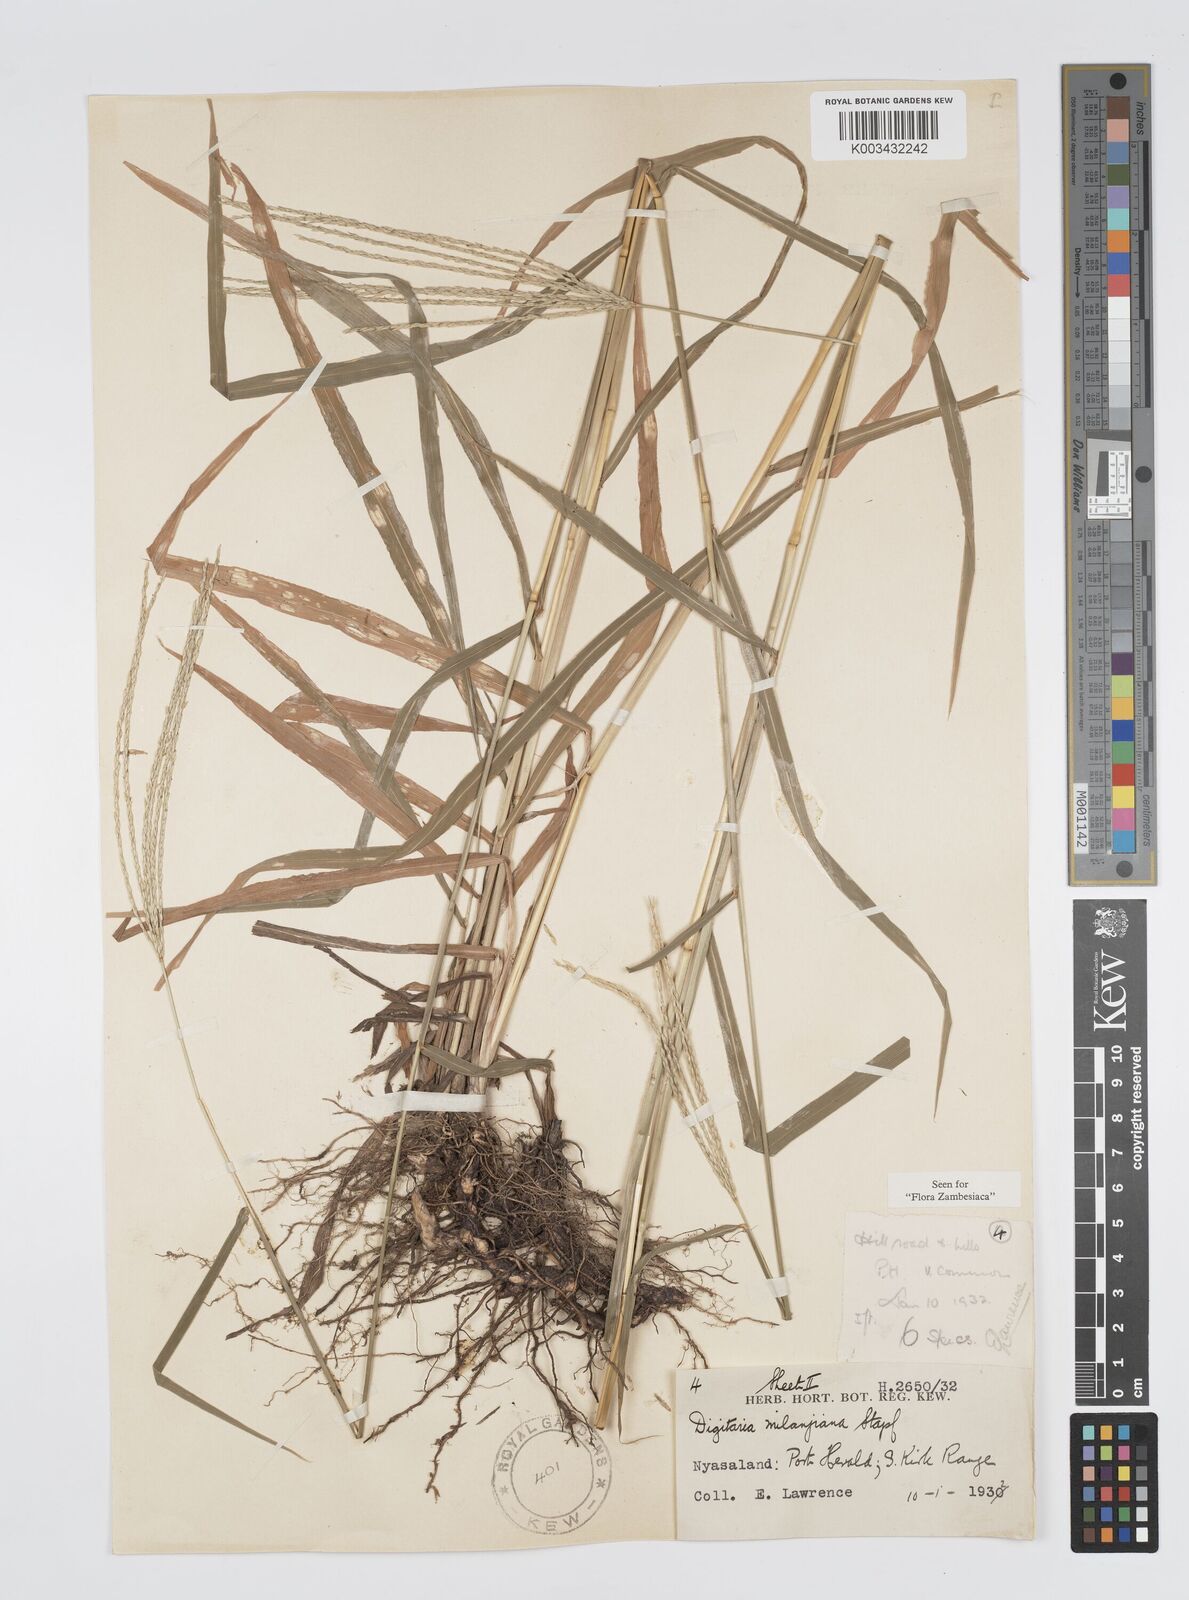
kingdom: Plantae
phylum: Tracheophyta
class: Liliopsida
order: Poales
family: Poaceae
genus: Digitaria
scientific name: Digitaria milanjiana
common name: Madagascar crabgrass
